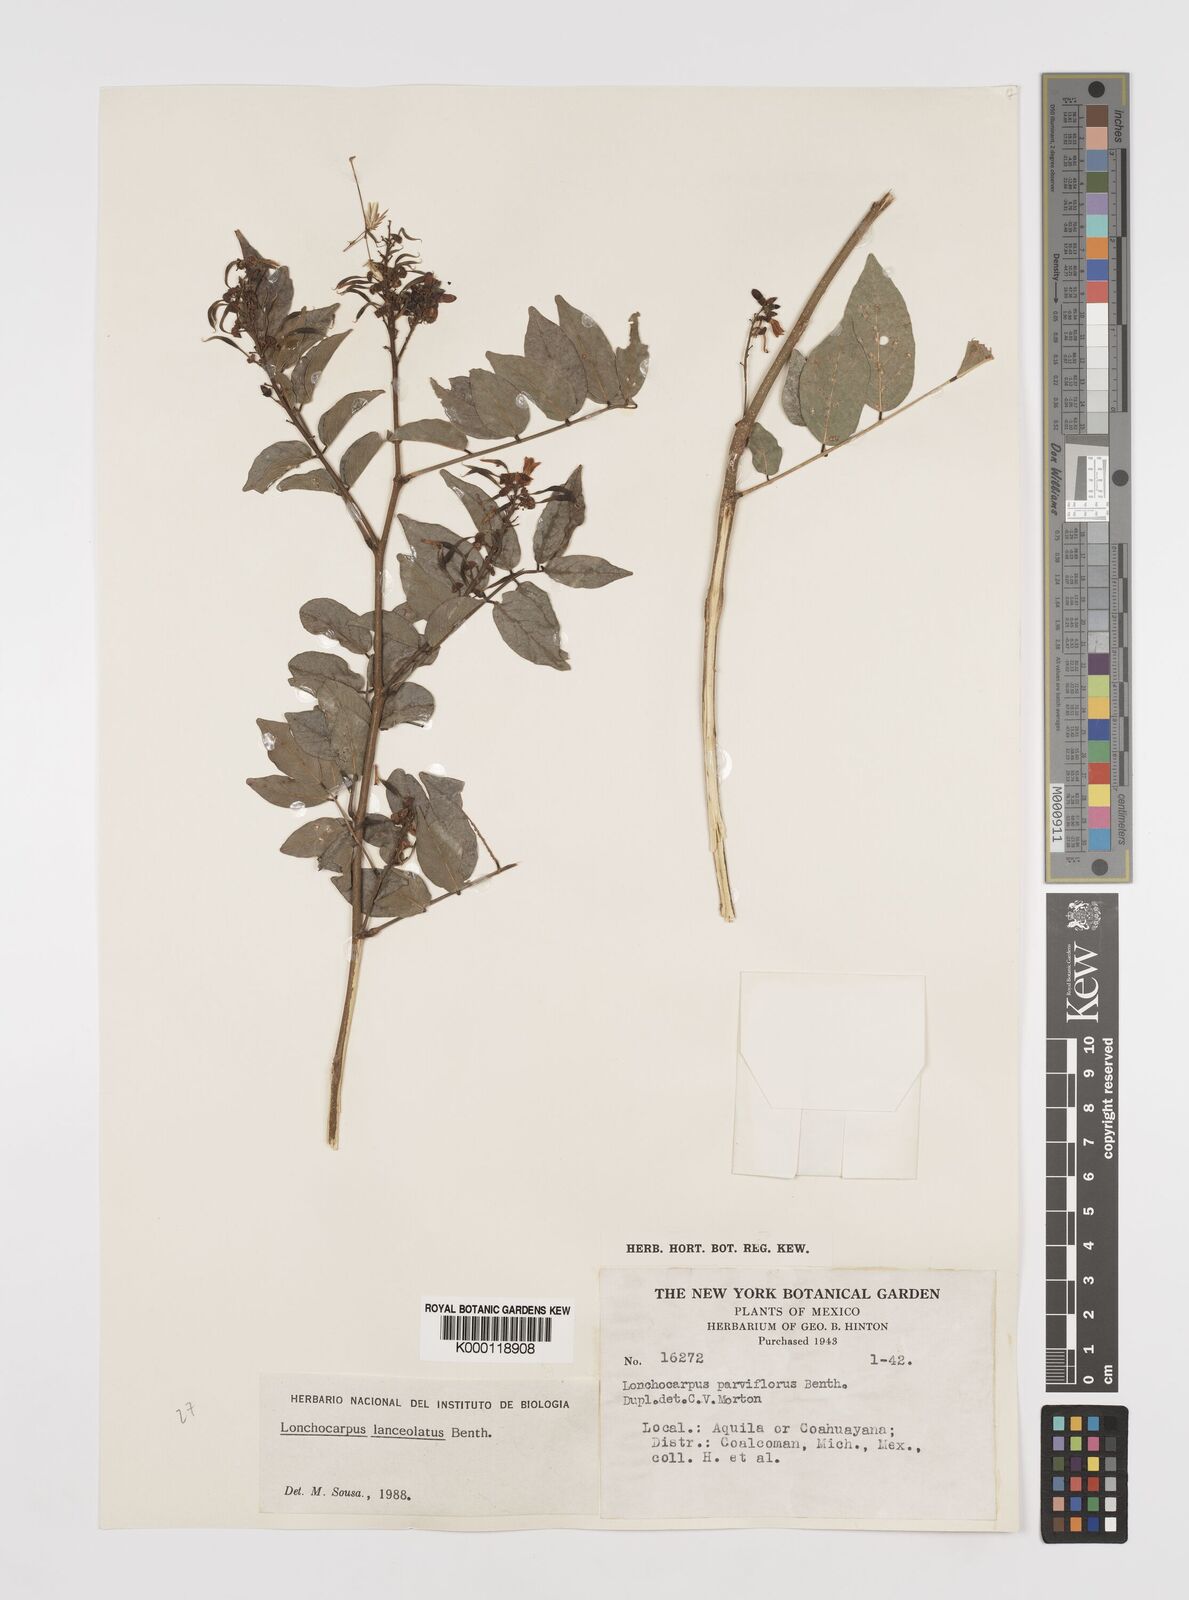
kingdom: Plantae
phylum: Tracheophyta
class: Magnoliopsida
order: Fabales
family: Fabaceae
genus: Lonchocarpus
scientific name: Lonchocarpus lanceolatus
